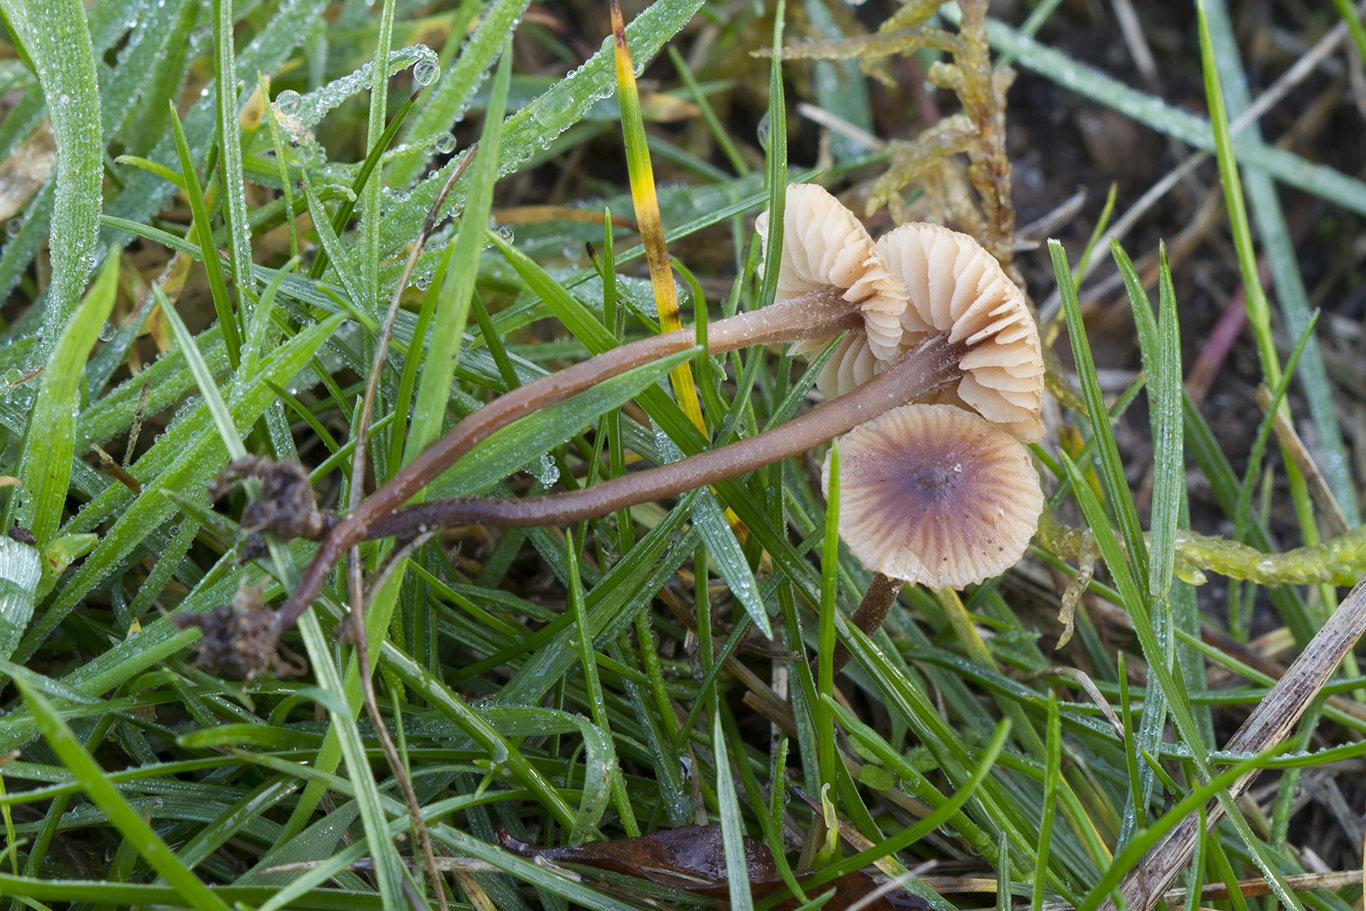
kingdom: Fungi
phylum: Basidiomycota
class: Agaricomycetes
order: Agaricales
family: Macrocystidiaceae
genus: Macrocystidia
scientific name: Macrocystidia cucumis
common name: Cucumber cap
